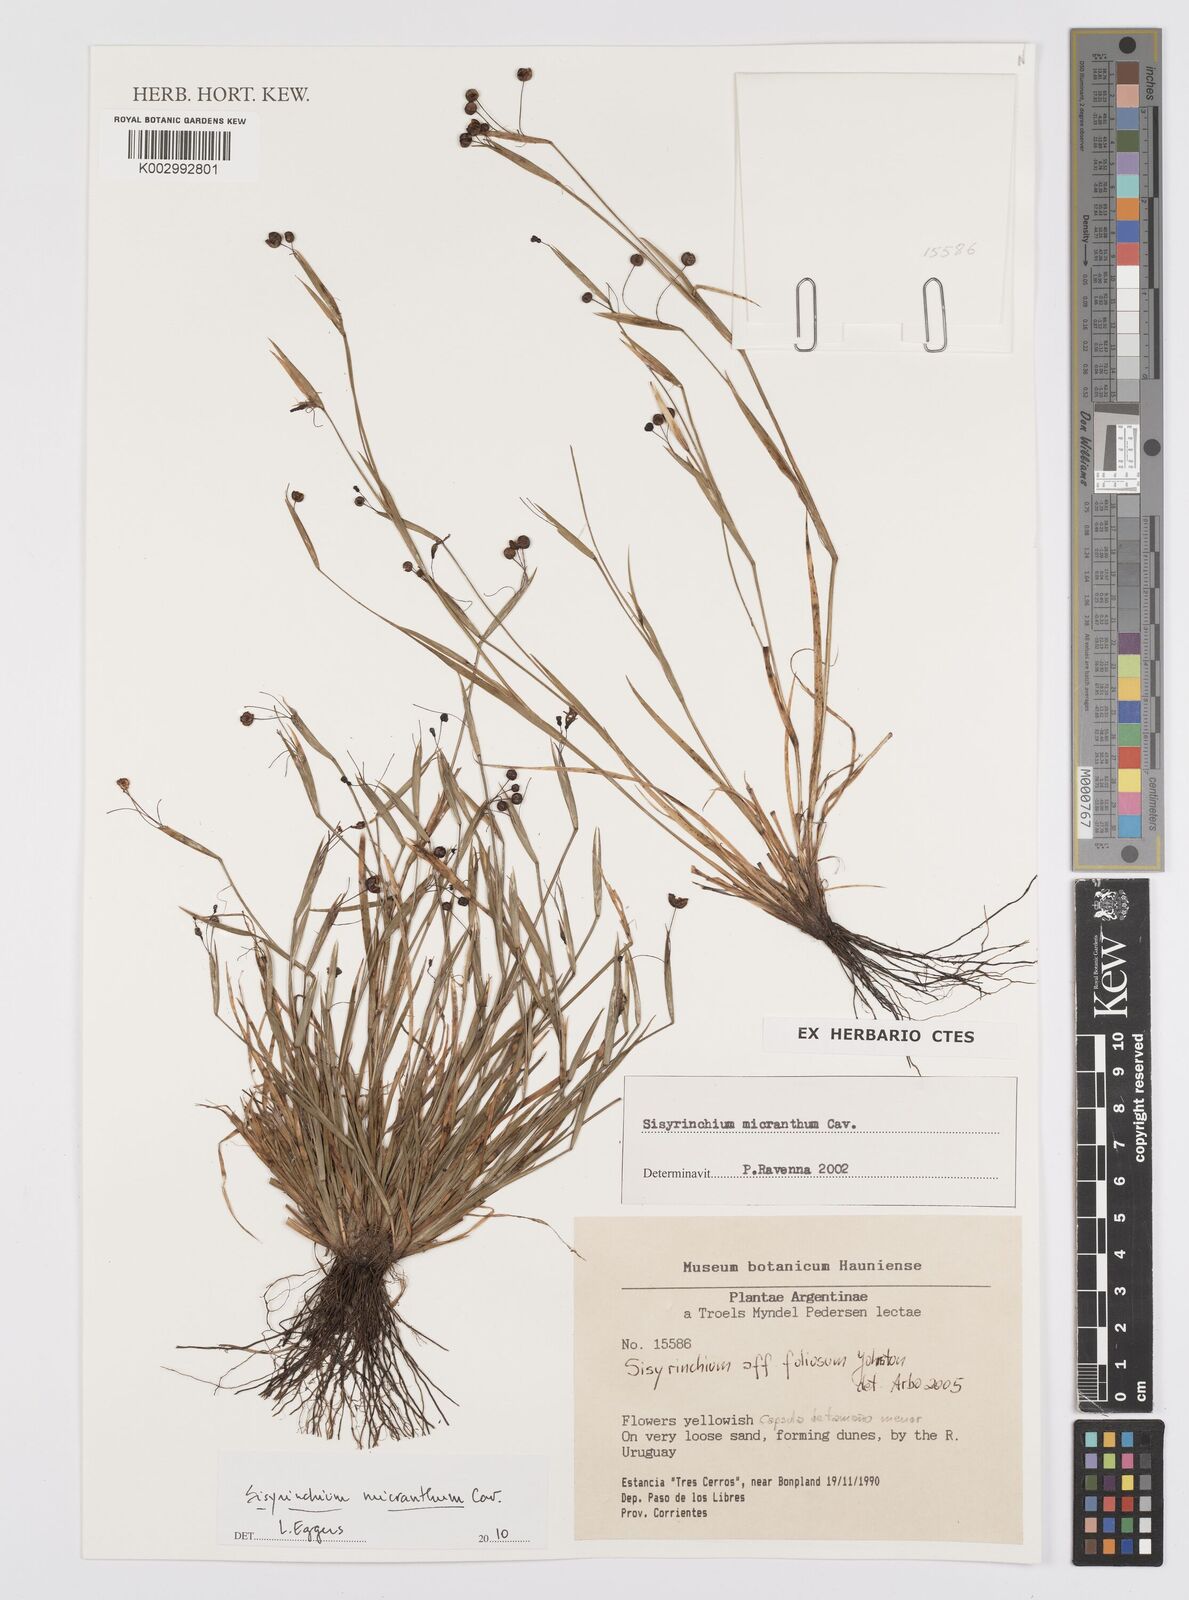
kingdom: Plantae
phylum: Tracheophyta
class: Liliopsida
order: Asparagales
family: Iridaceae
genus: Sisyrinchium
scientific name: Sisyrinchium micranthum
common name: Bermuda pigroot
